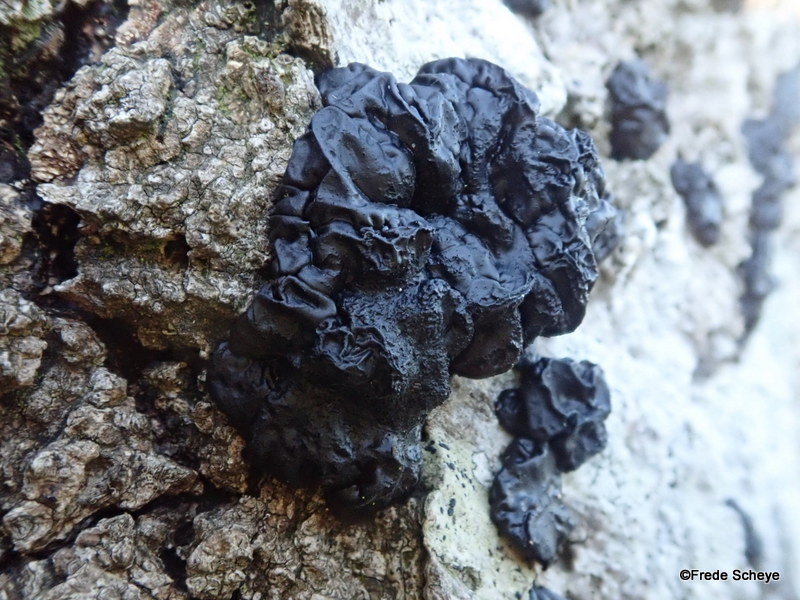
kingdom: Fungi
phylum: Basidiomycota
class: Agaricomycetes
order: Auriculariales
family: Auriculariaceae
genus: Exidia
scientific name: Exidia nigricans
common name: almindelig bævretop
